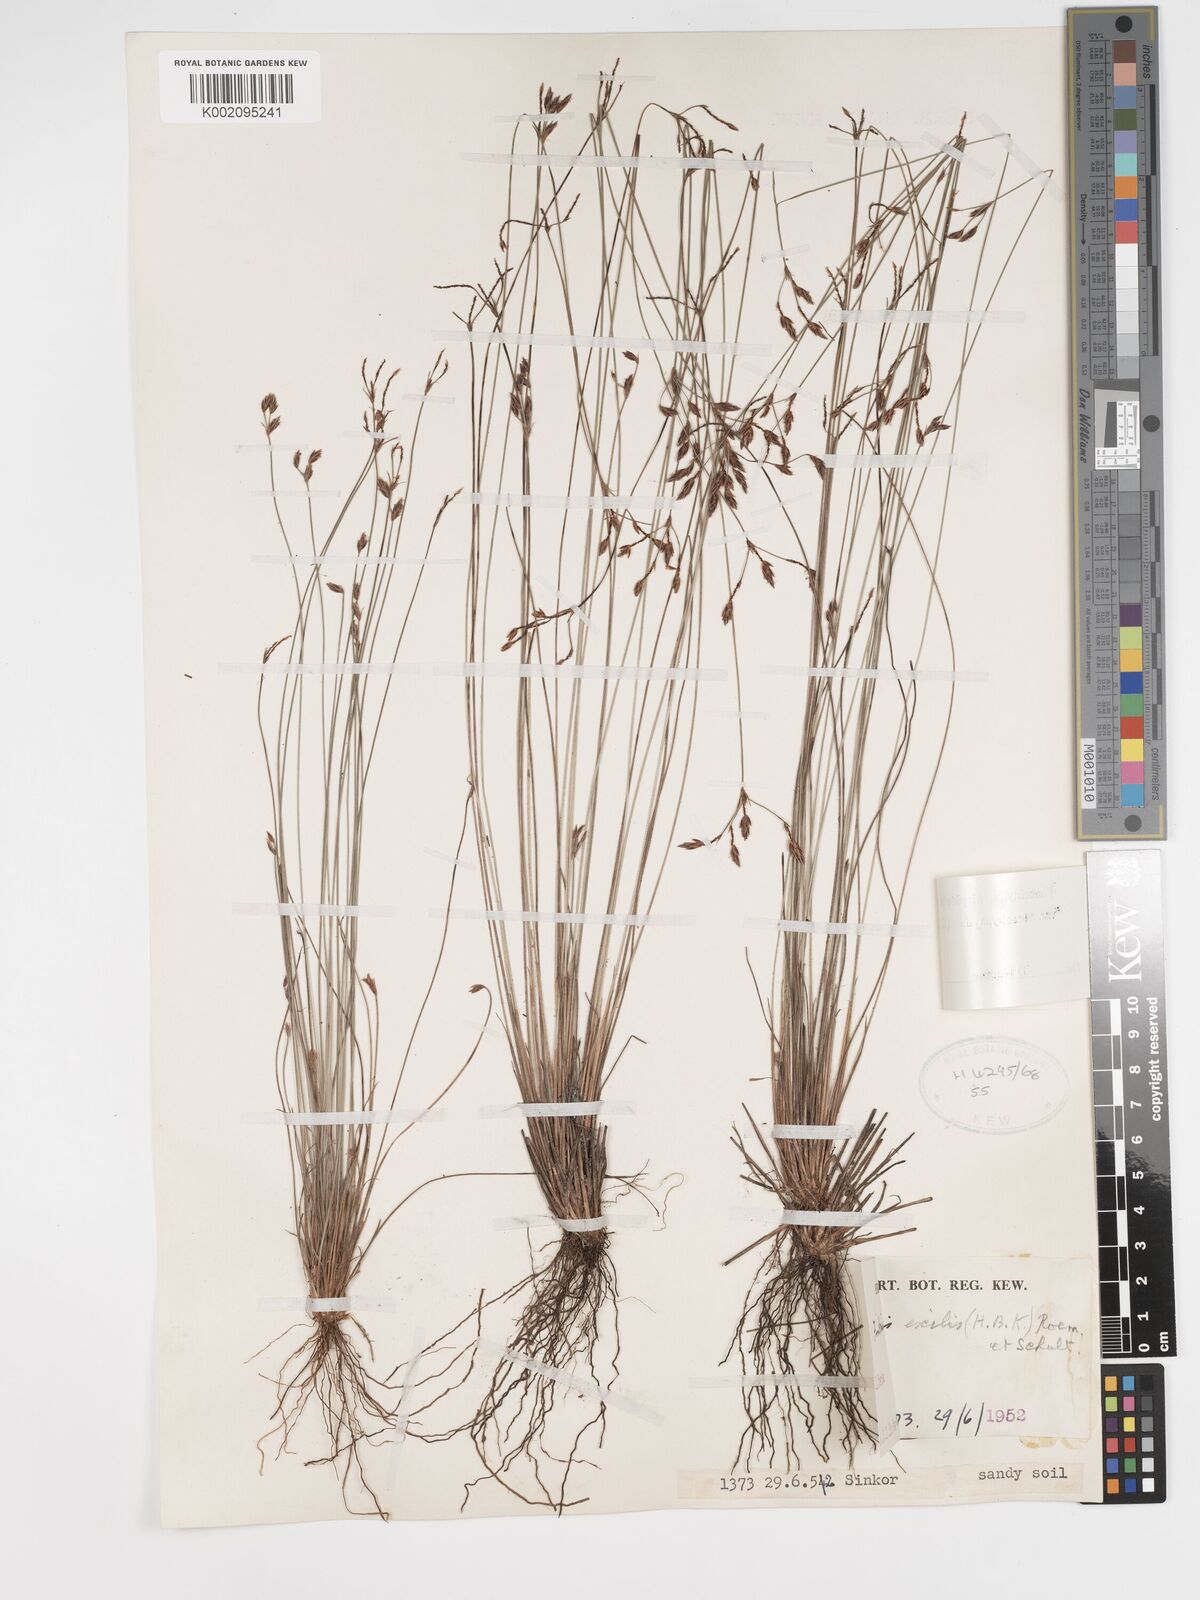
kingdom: Plantae
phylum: Tracheophyta
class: Liliopsida
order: Poales
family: Cyperaceae
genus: Bulbostylis
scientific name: Bulbostylis hispidula
